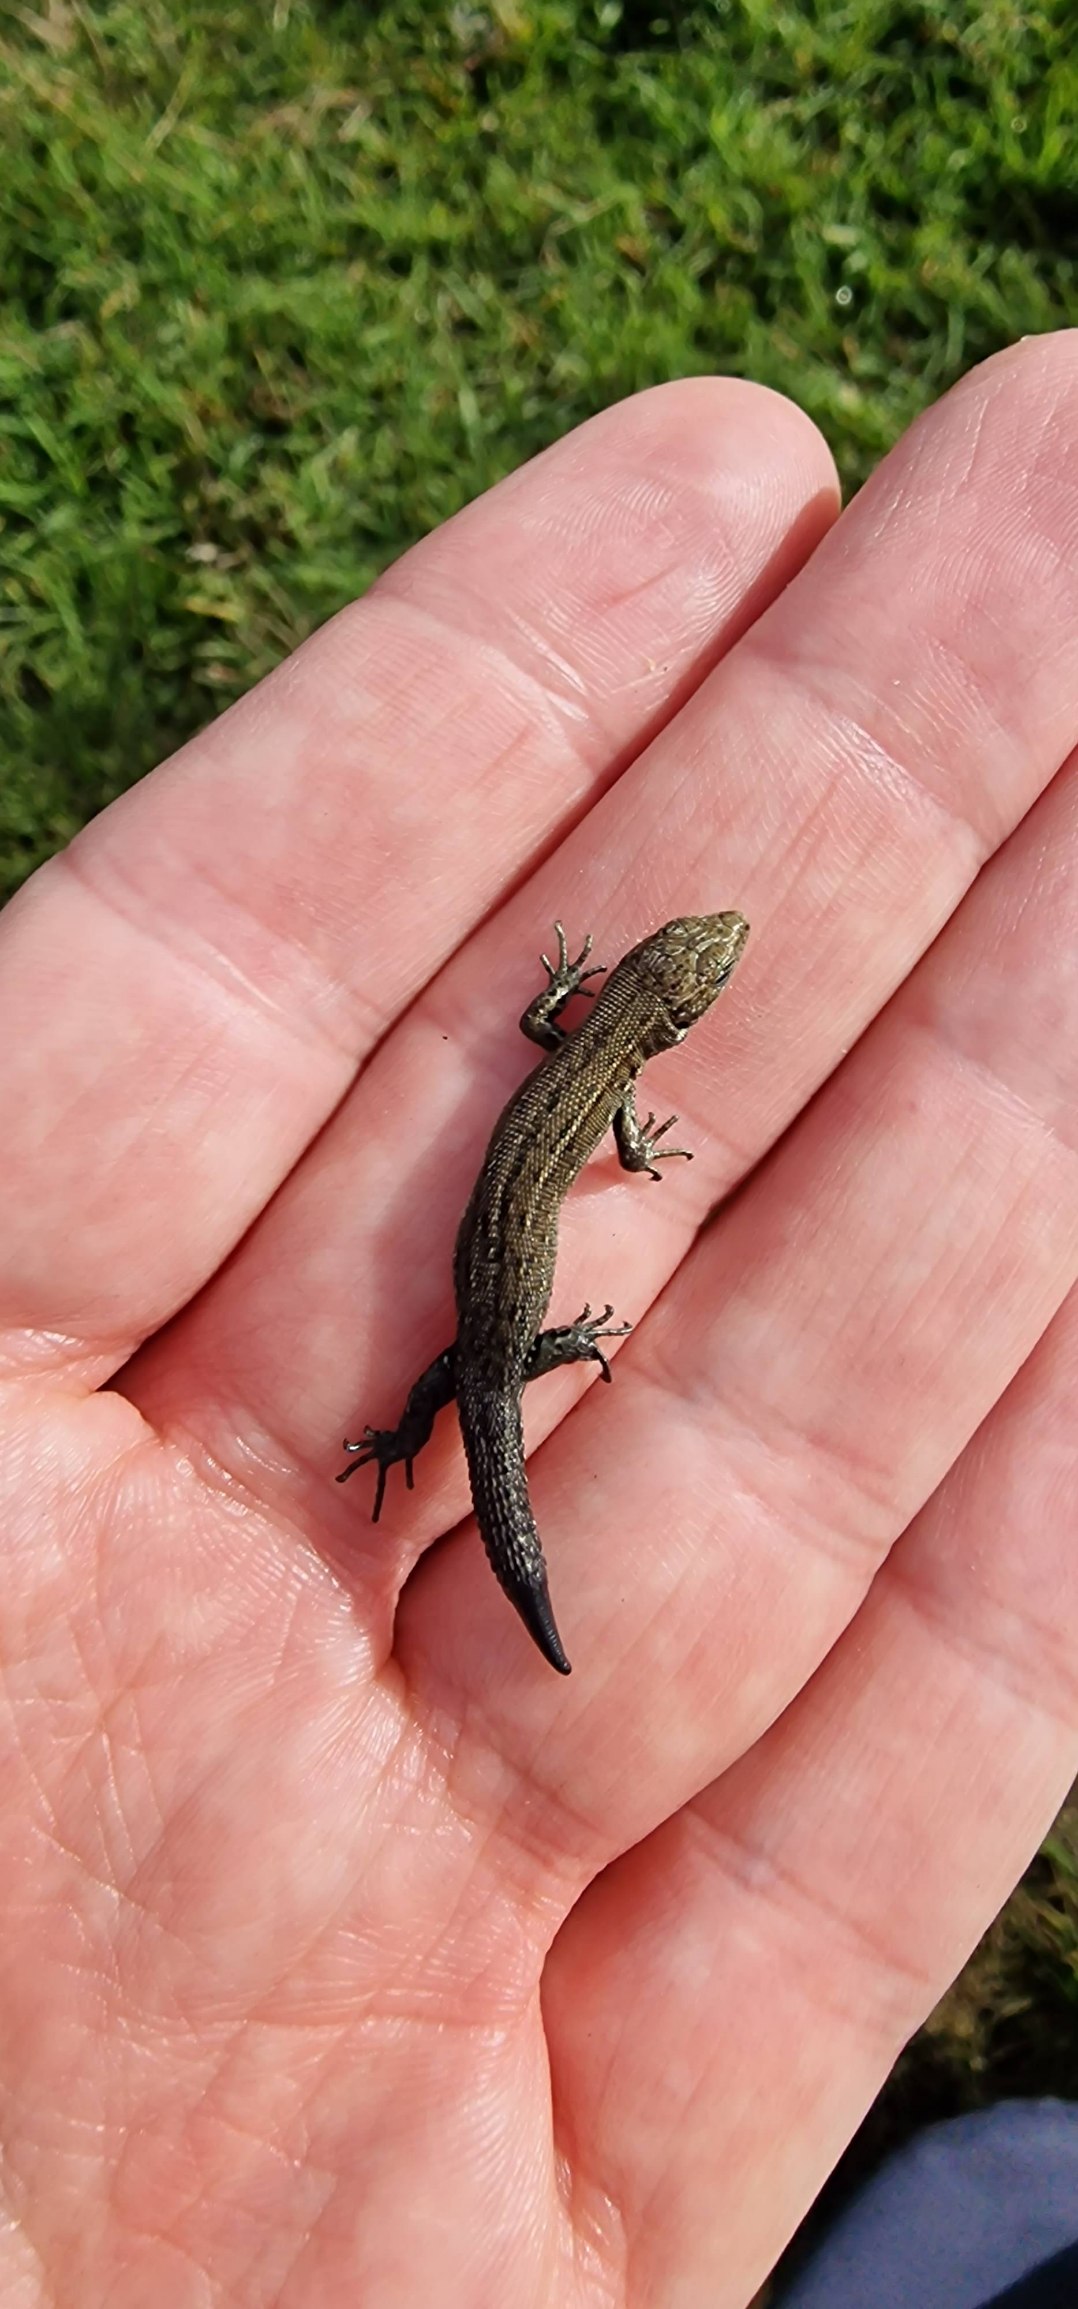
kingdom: Animalia
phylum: Chordata
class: Squamata
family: Lacertidae
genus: Zootoca
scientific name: Zootoca vivipara
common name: Skovfirben
